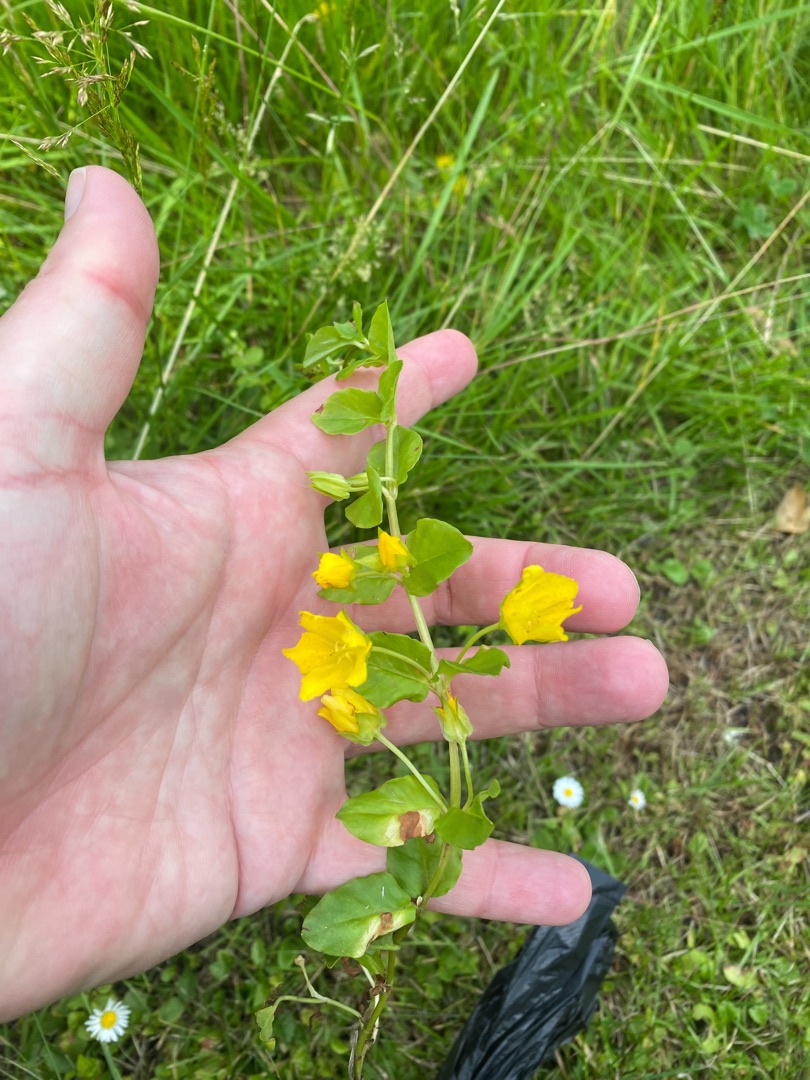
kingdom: Plantae
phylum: Tracheophyta
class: Magnoliopsida
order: Ericales
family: Primulaceae
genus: Lysimachia
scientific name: Lysimachia nummularia
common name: Pengebladet fredløs
